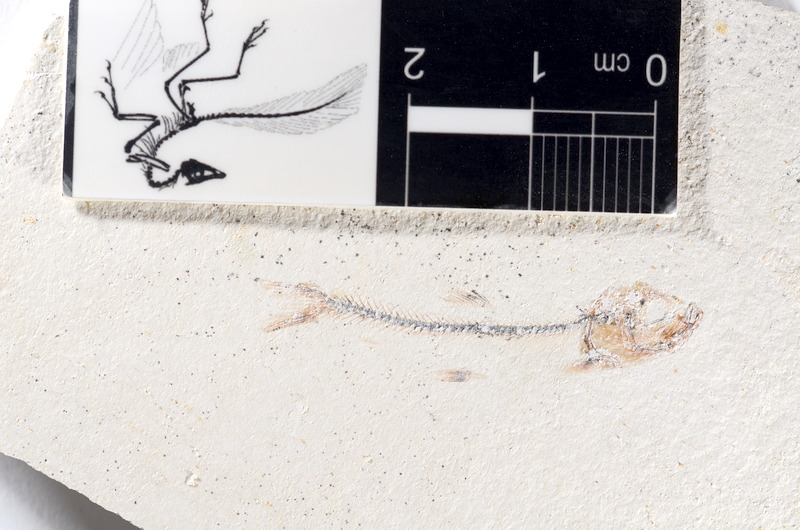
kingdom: Animalia
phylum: Chordata
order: Salmoniformes
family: Orthogonikleithridae
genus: Orthogonikleithrus
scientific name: Orthogonikleithrus hoelli
